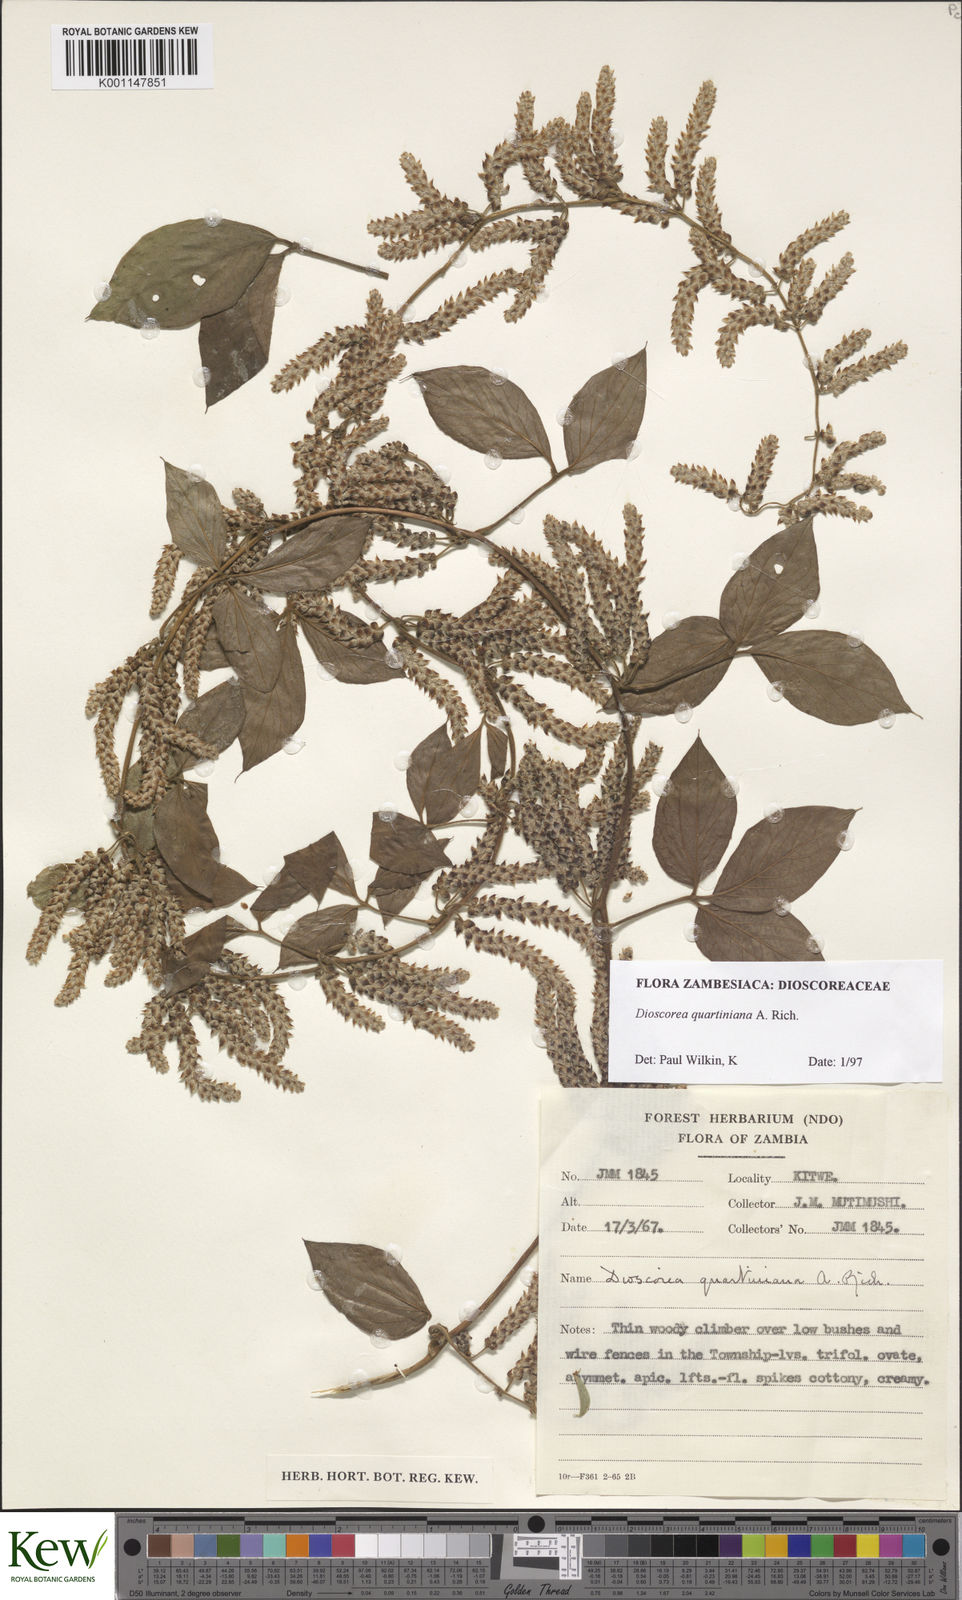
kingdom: Plantae
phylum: Tracheophyta
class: Liliopsida
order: Dioscoreales
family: Dioscoreaceae
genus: Dioscorea
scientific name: Dioscorea quartiniana
